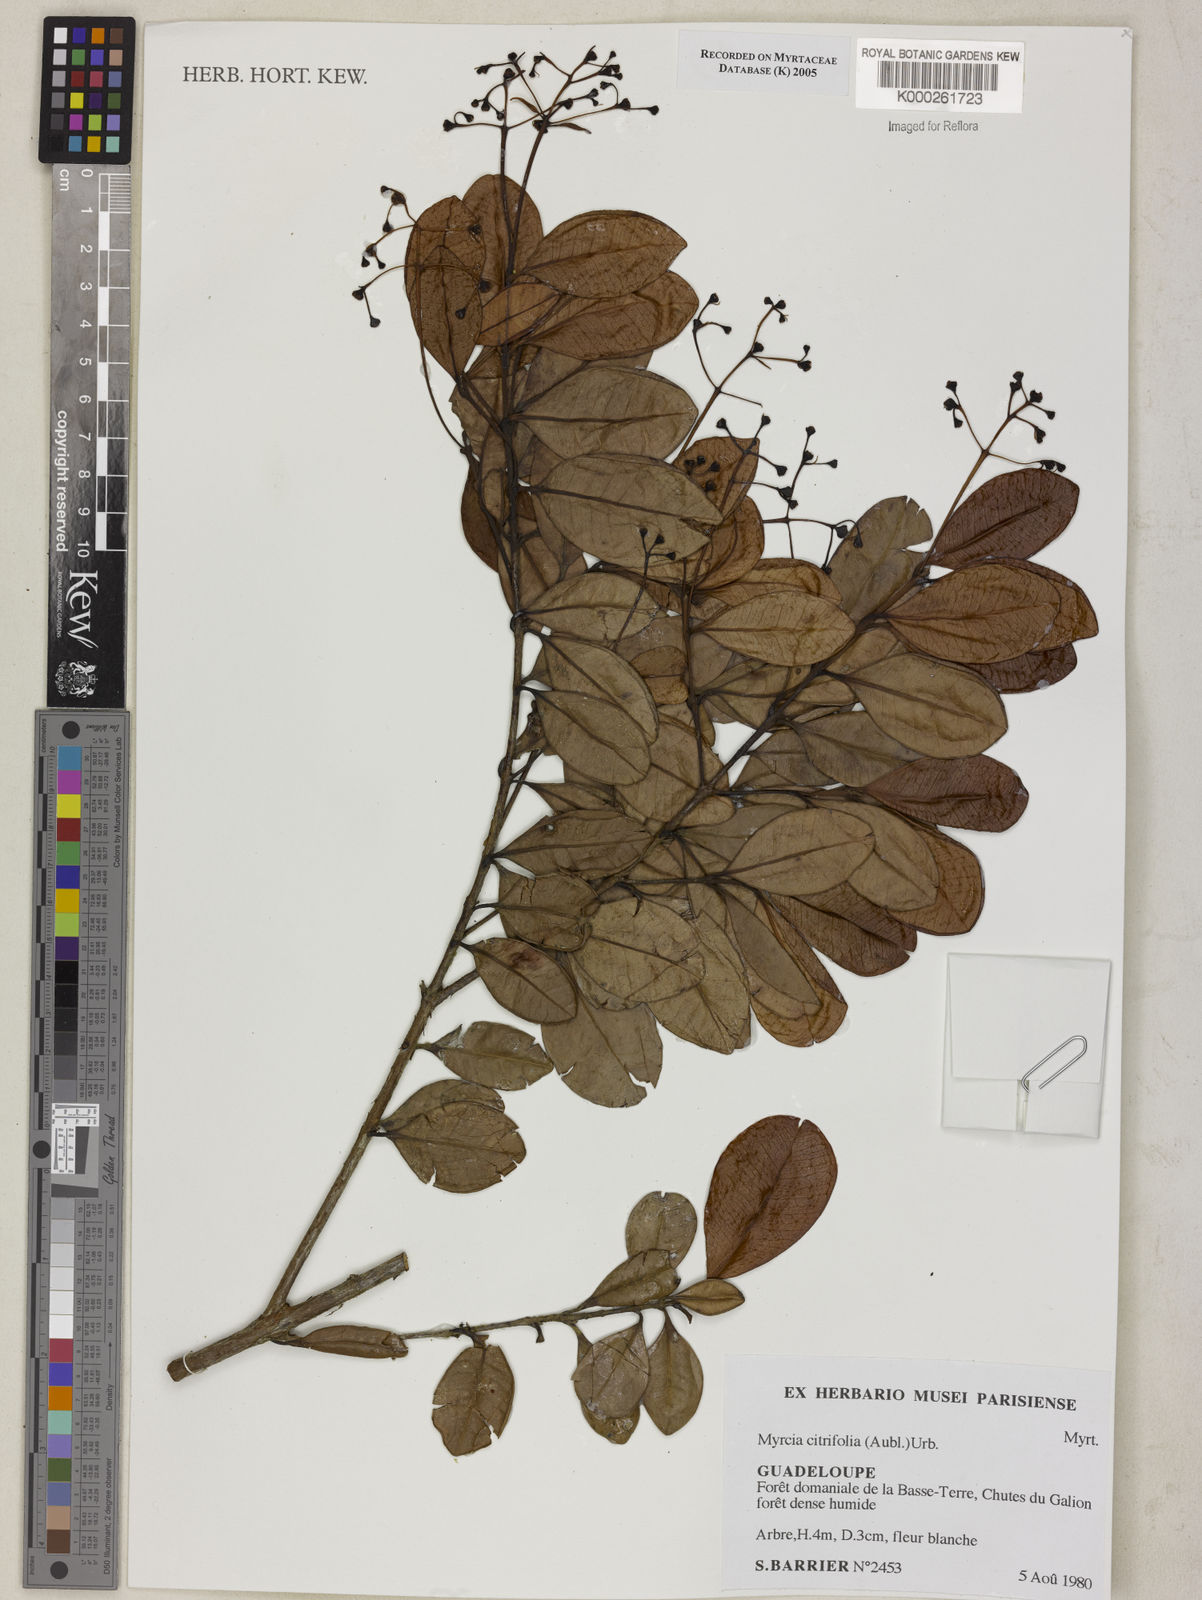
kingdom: Plantae
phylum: Tracheophyta
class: Magnoliopsida
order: Myrtales
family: Myrtaceae
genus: Myrcia
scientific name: Myrcia guianensis
